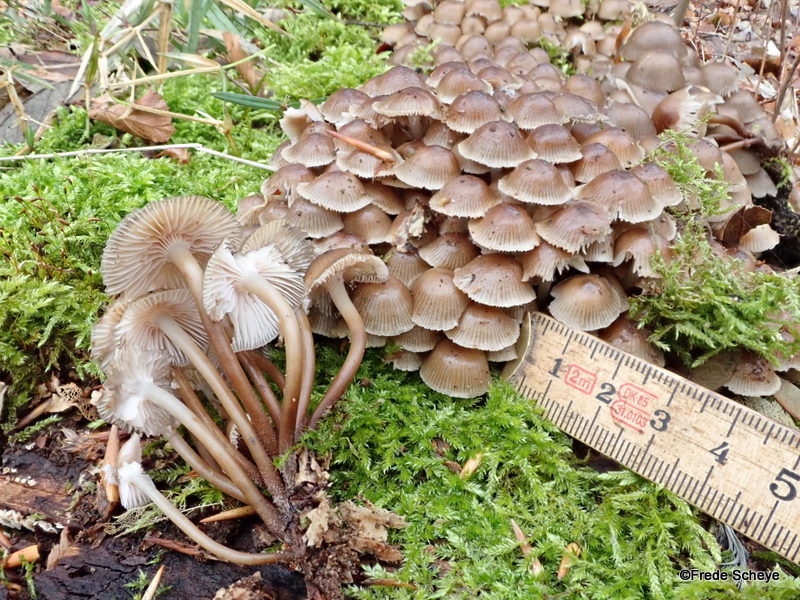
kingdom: Fungi
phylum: Basidiomycota
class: Agaricomycetes
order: Agaricales
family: Mycenaceae
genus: Mycena
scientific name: Mycena tintinnabulum
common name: vinter-huesvamp
